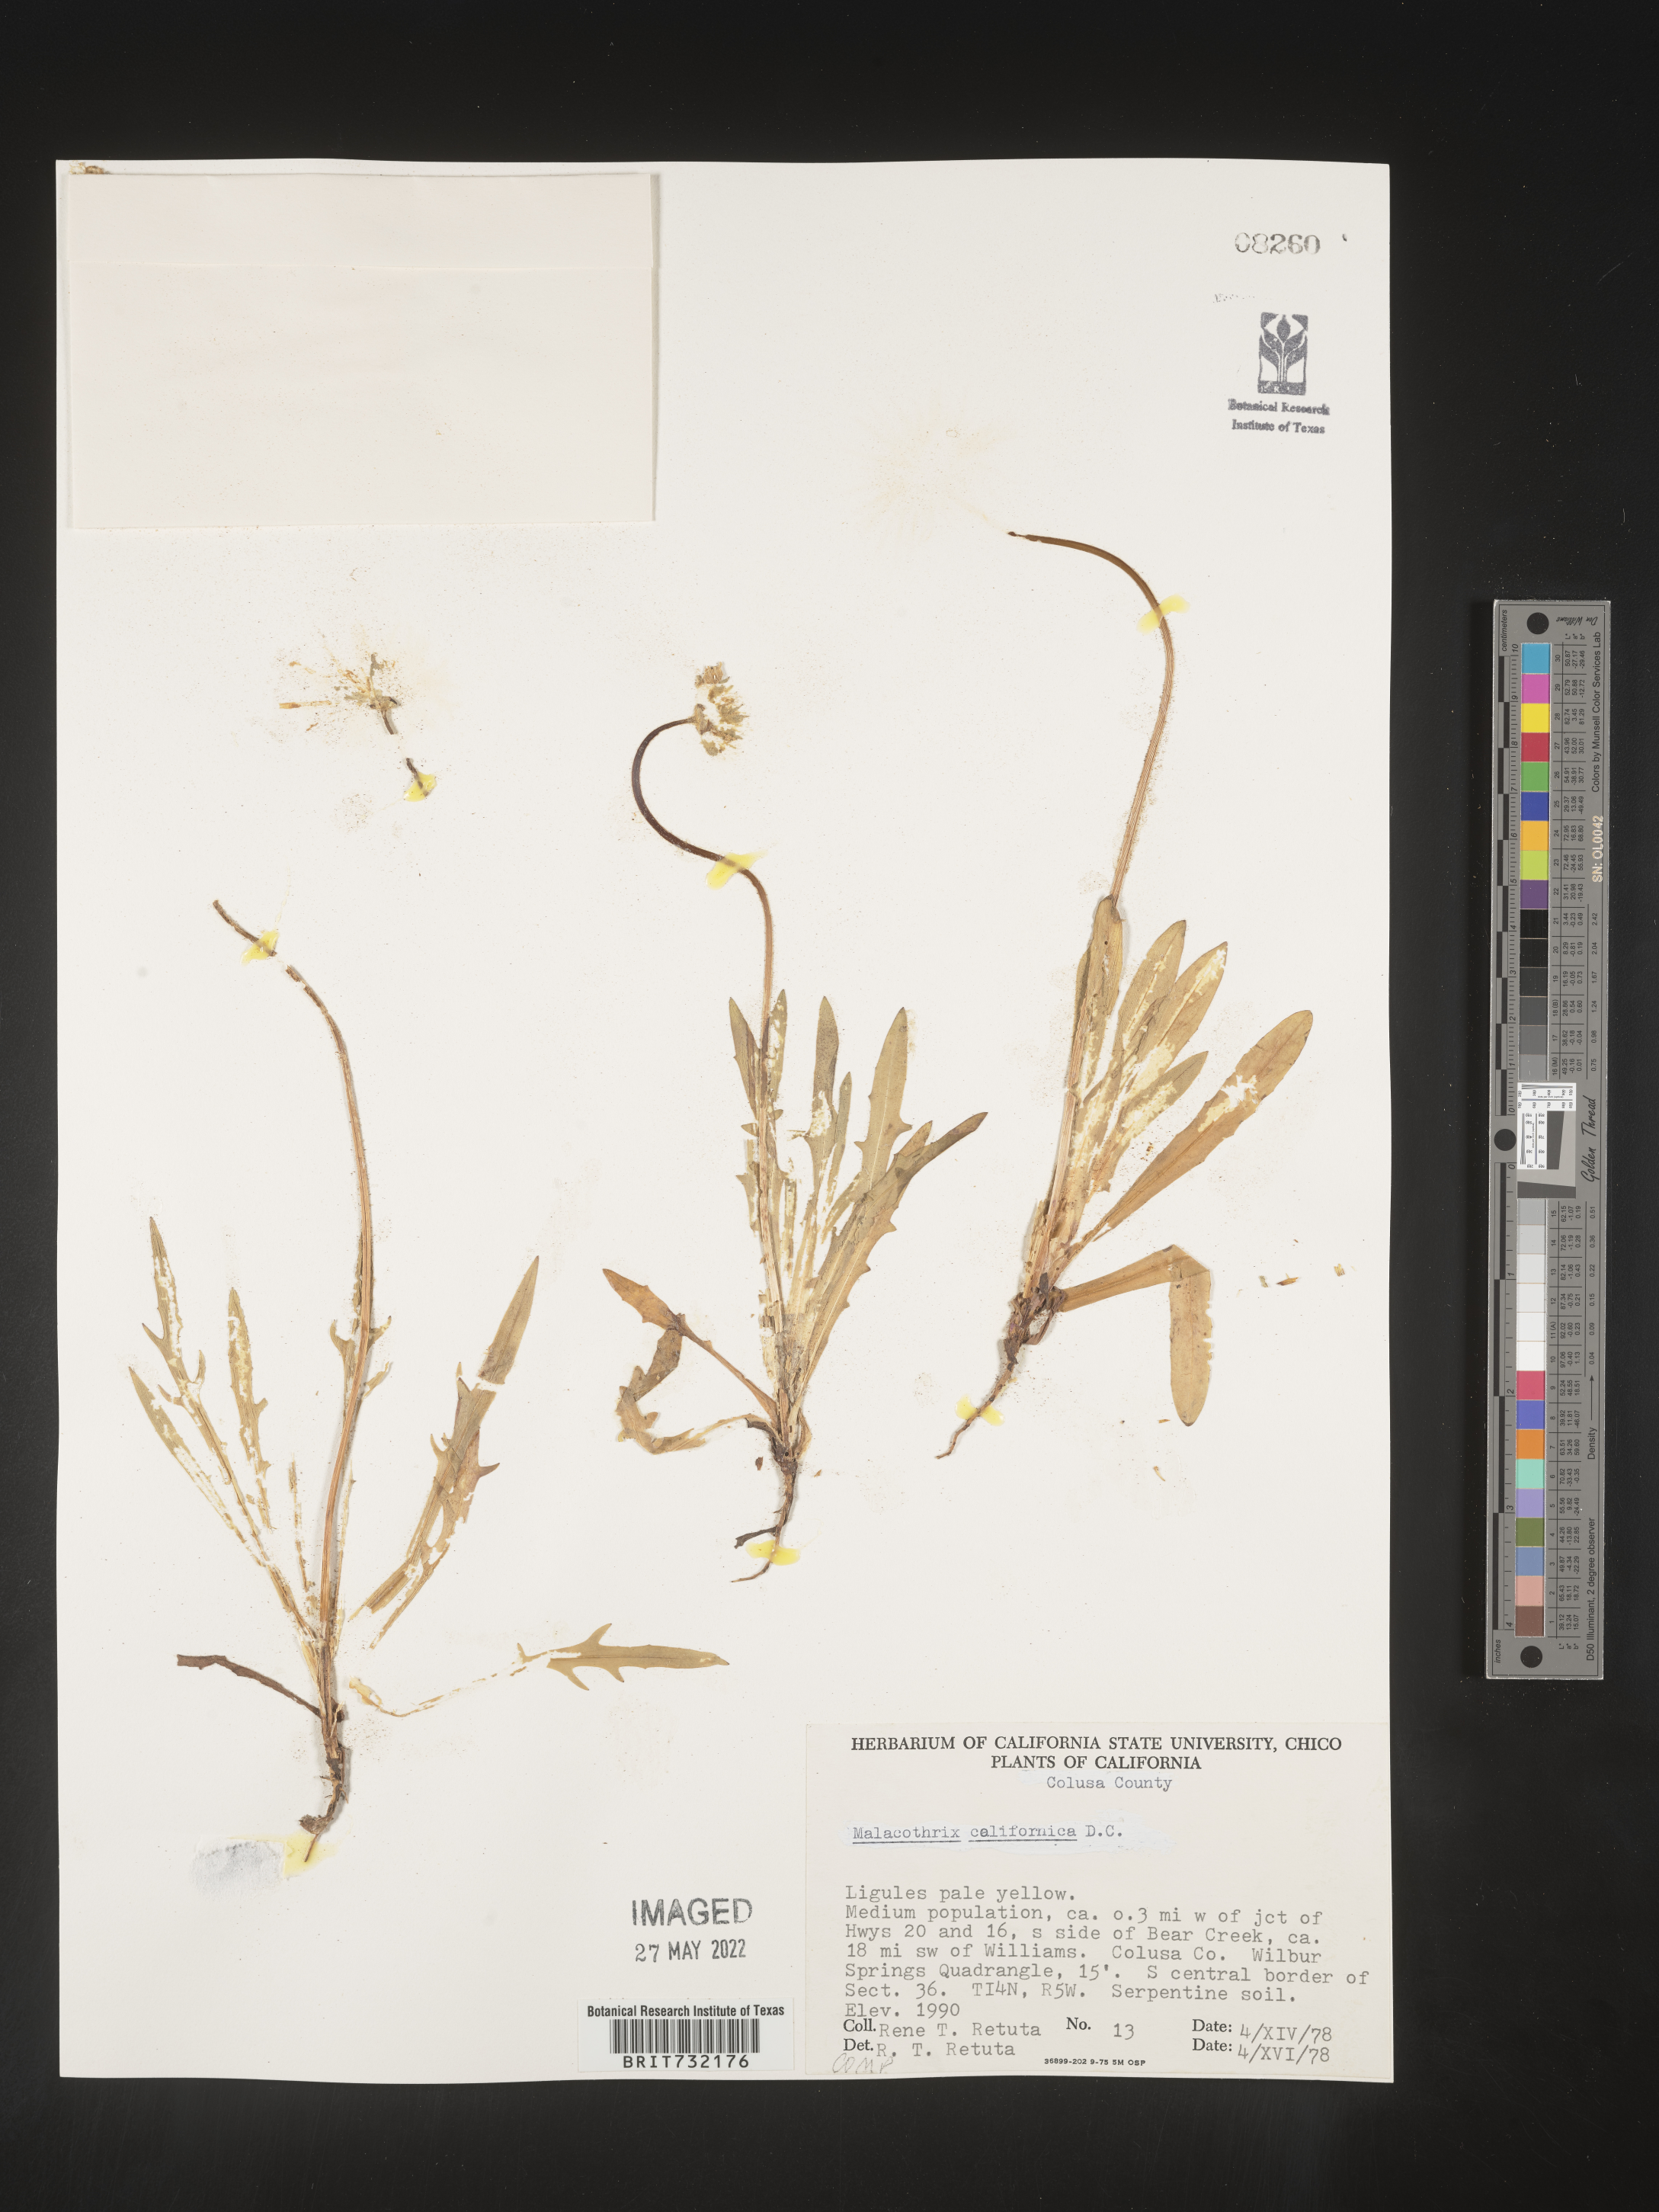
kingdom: Plantae
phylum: Tracheophyta
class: Magnoliopsida
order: Asterales
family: Asteraceae
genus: Malacothrix
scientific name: Malacothrix
